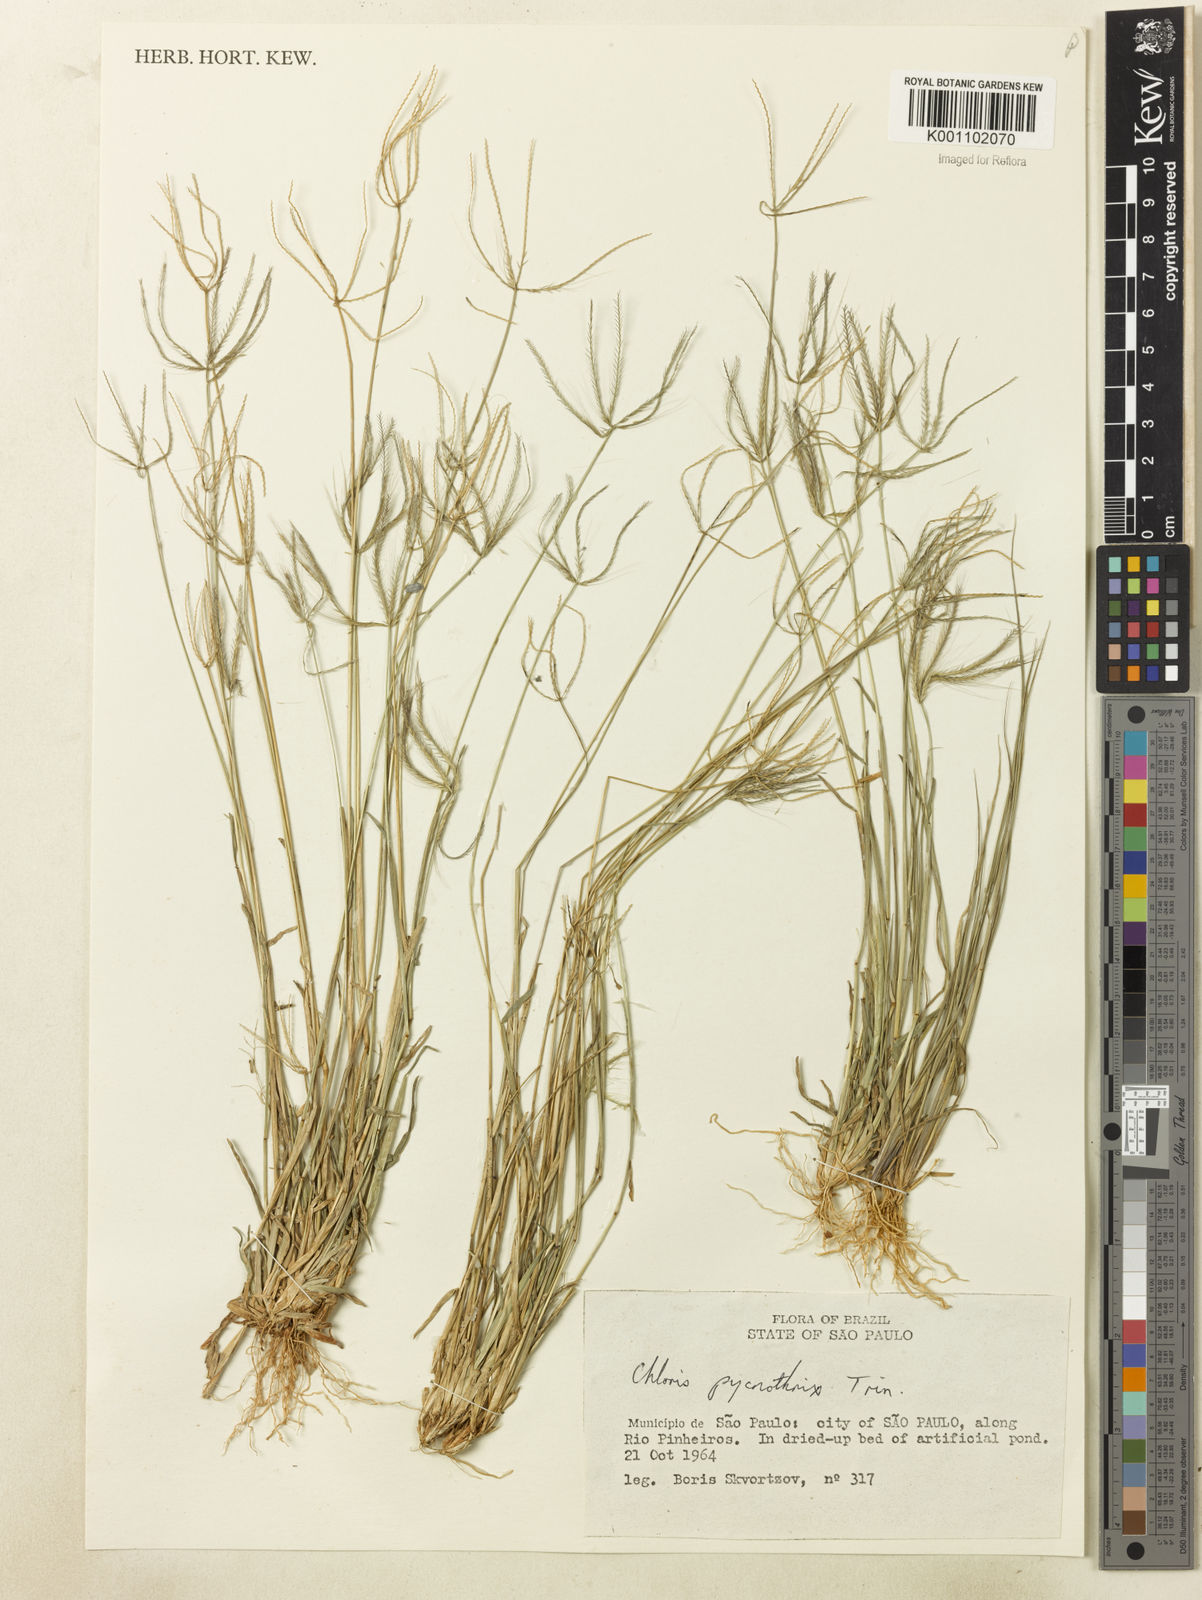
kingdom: Plantae
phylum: Tracheophyta
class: Liliopsida
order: Poales
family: Poaceae
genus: Chloris
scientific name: Chloris pycnothrix
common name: Spiderweb chloris
